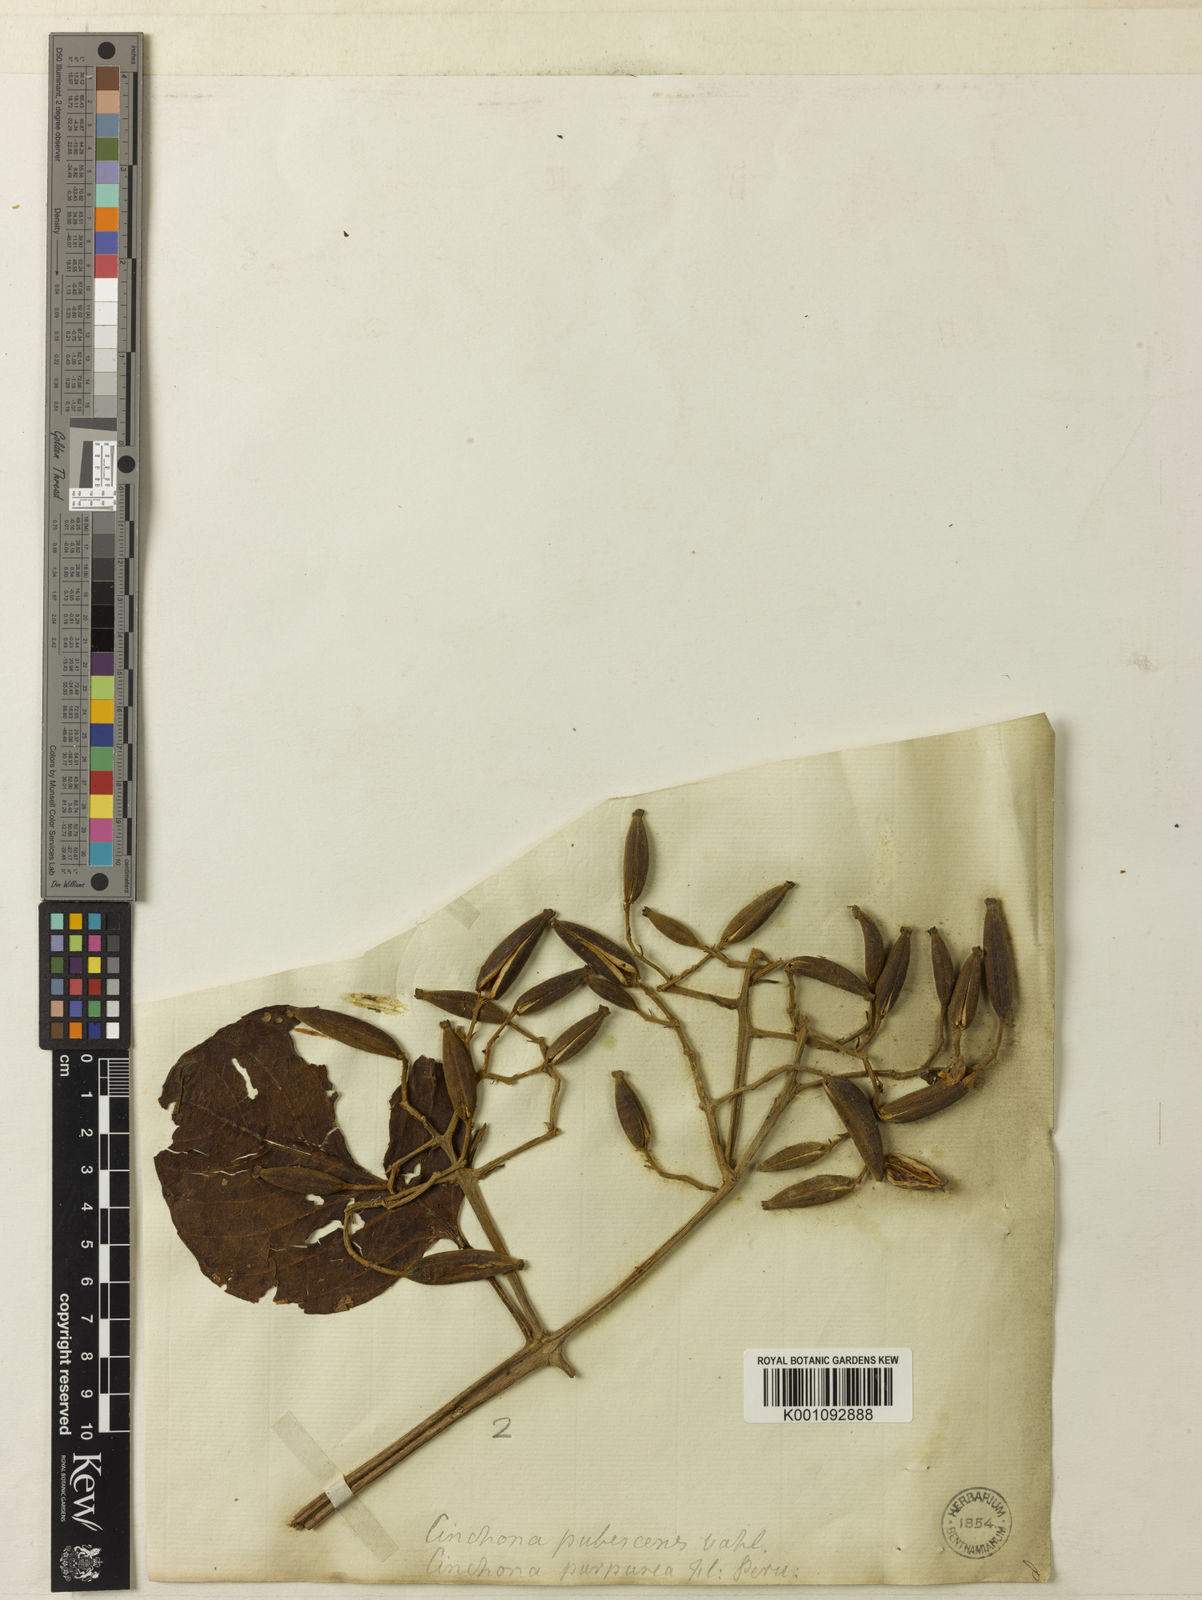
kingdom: Plantae
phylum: Tracheophyta
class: Magnoliopsida
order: Gentianales
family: Rubiaceae
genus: Cinchona
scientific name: Cinchona pubescens
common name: Quinine
